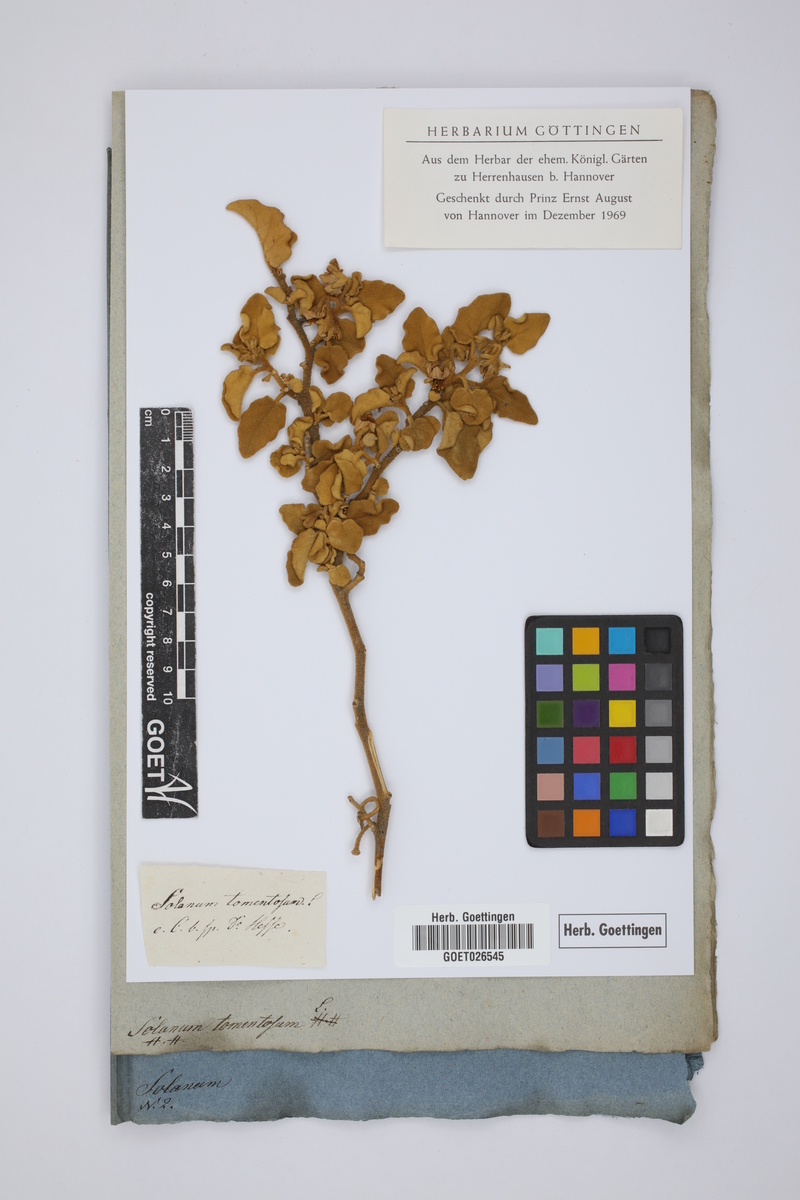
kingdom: Plantae
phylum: Tracheophyta
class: Magnoliopsida
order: Solanales
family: Solanaceae
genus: Solanum
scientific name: Solanum tomentosum
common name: Wild aubergine
